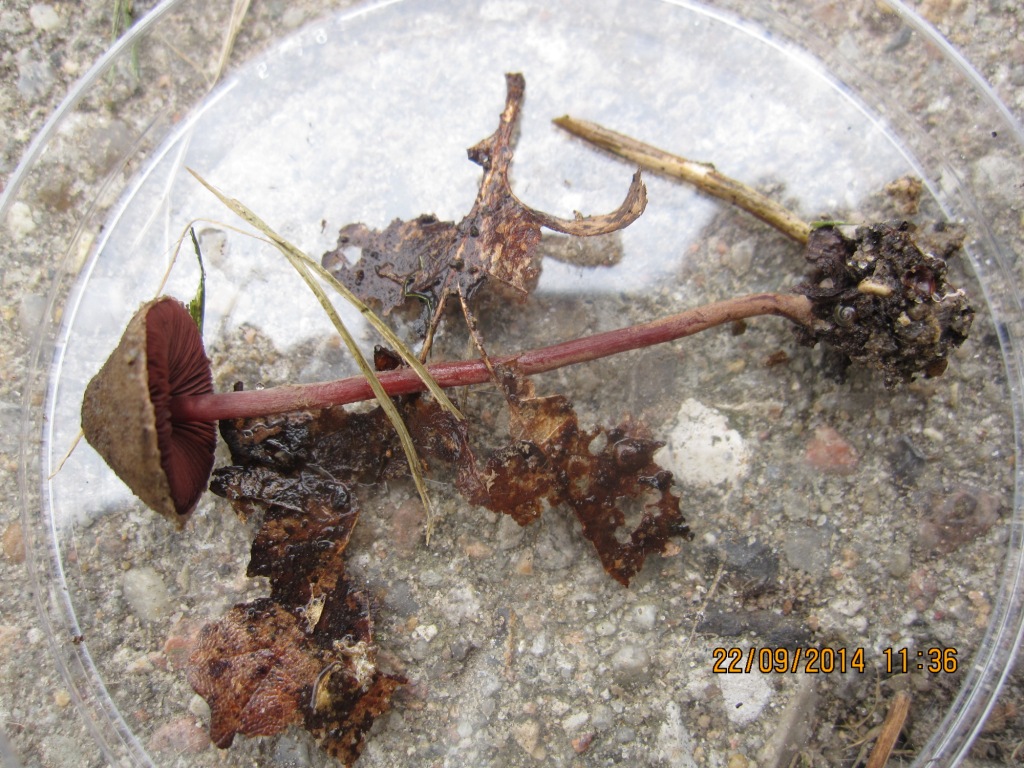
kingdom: Fungi
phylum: Basidiomycota
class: Agaricomycetes
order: Agaricales
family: Agaricaceae
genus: Melanophyllum
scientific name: Melanophyllum haematospermum
